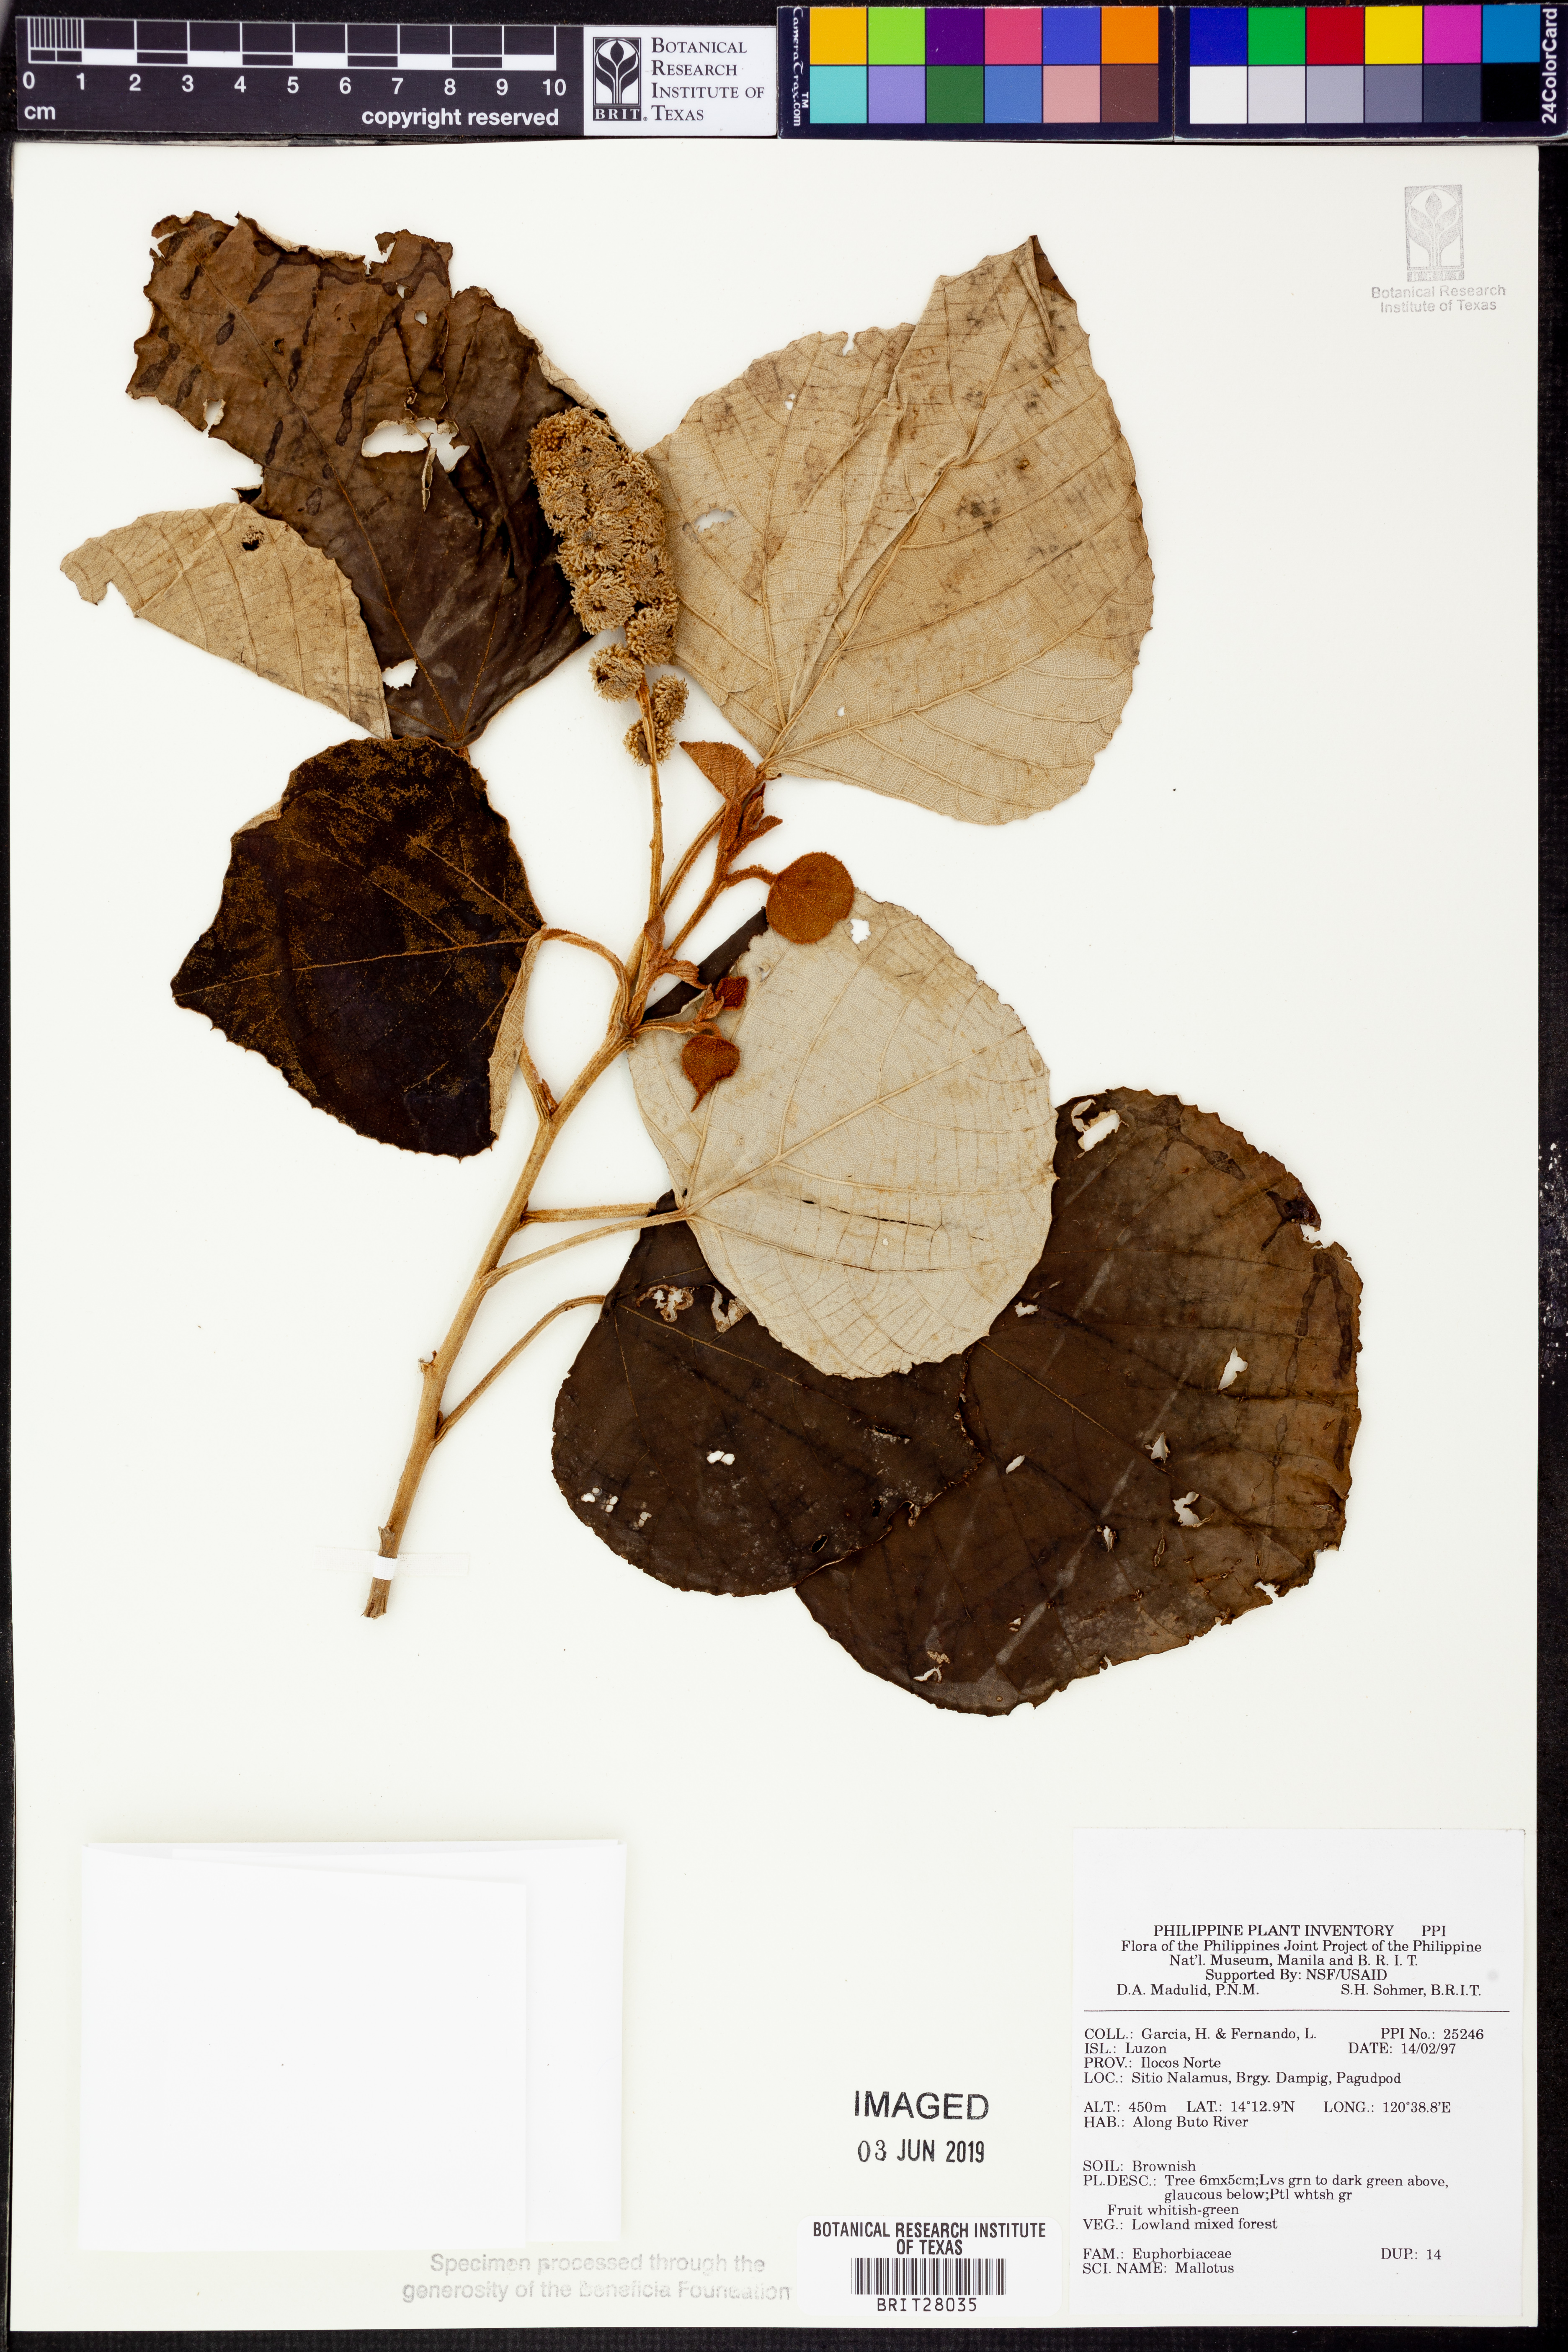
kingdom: Plantae
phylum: Tracheophyta
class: Magnoliopsida
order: Malpighiales
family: Euphorbiaceae
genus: Mallotus
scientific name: Mallotus
